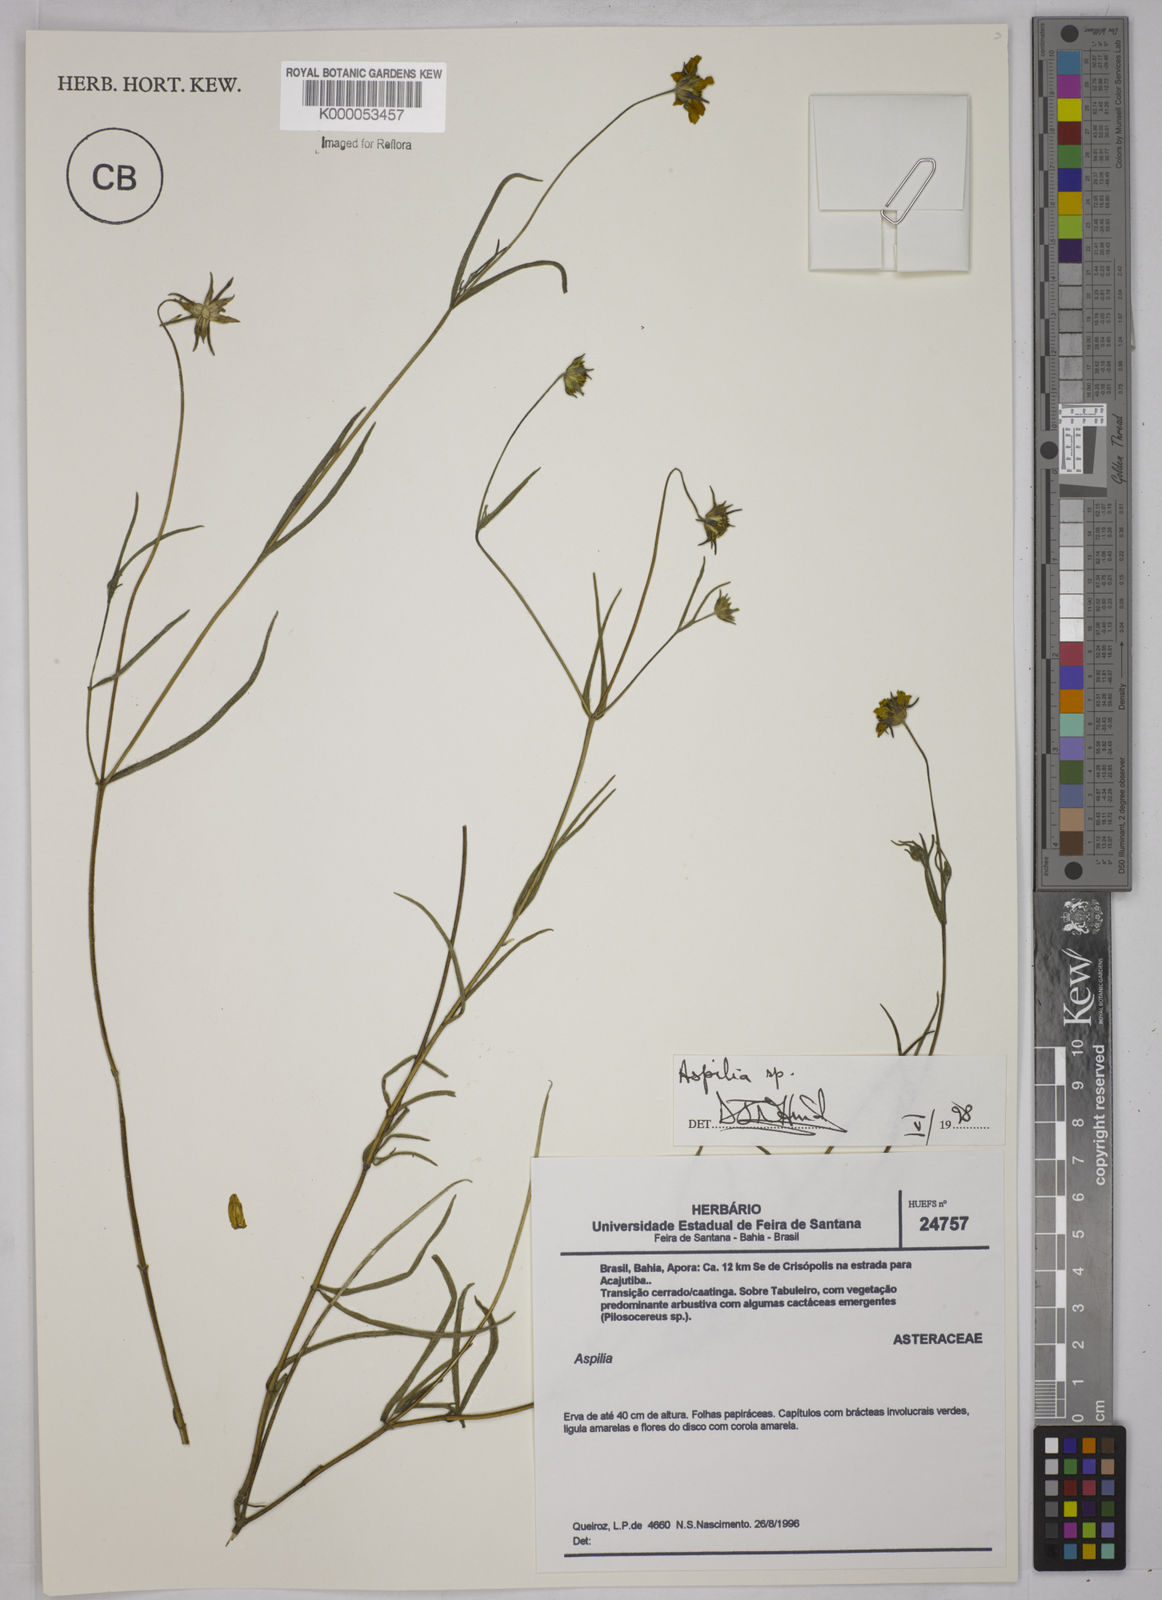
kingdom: Plantae
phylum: Tracheophyta
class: Magnoliopsida
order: Asterales
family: Asteraceae
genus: Aspilia
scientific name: Aspilia
